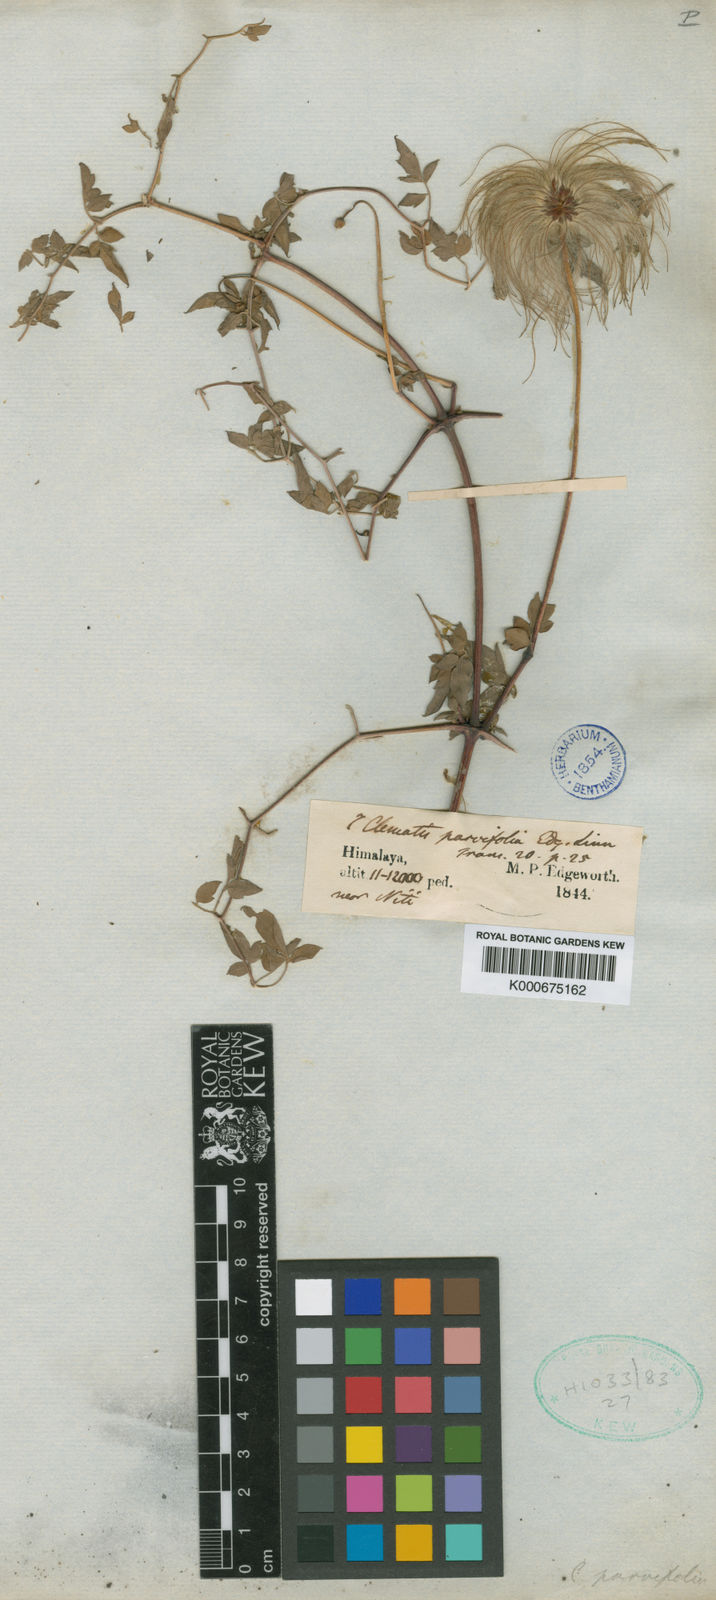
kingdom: Plantae
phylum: Tracheophyta
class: Magnoliopsida
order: Ranunculales
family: Ranunculaceae
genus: Clematis
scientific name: Clematis graveolens
